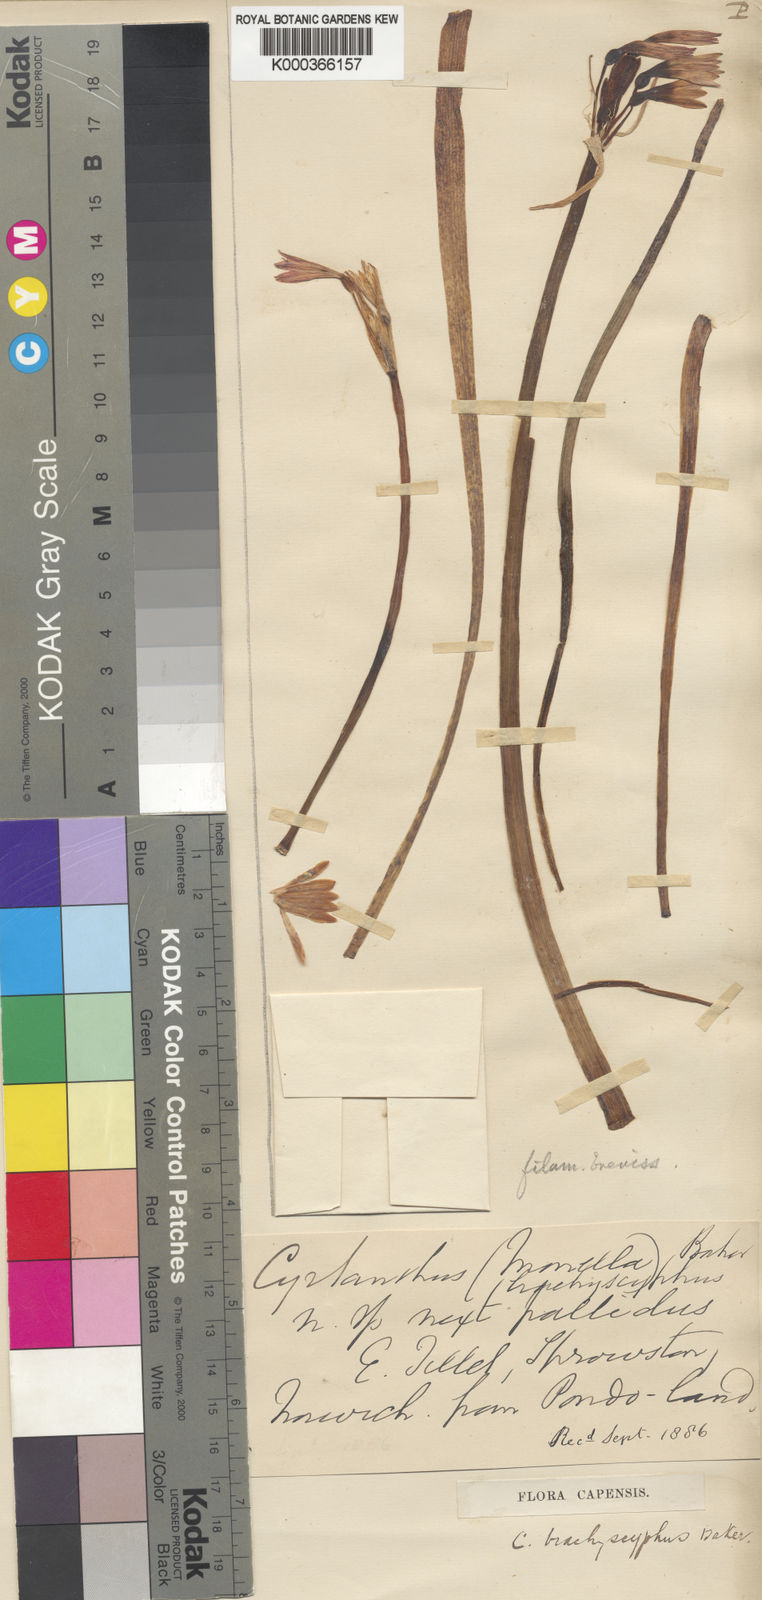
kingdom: Plantae
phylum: Tracheophyta
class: Liliopsida
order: Asparagales
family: Amaryllidaceae
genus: Cyrtanthus
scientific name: Cyrtanthus brachyscyphus
